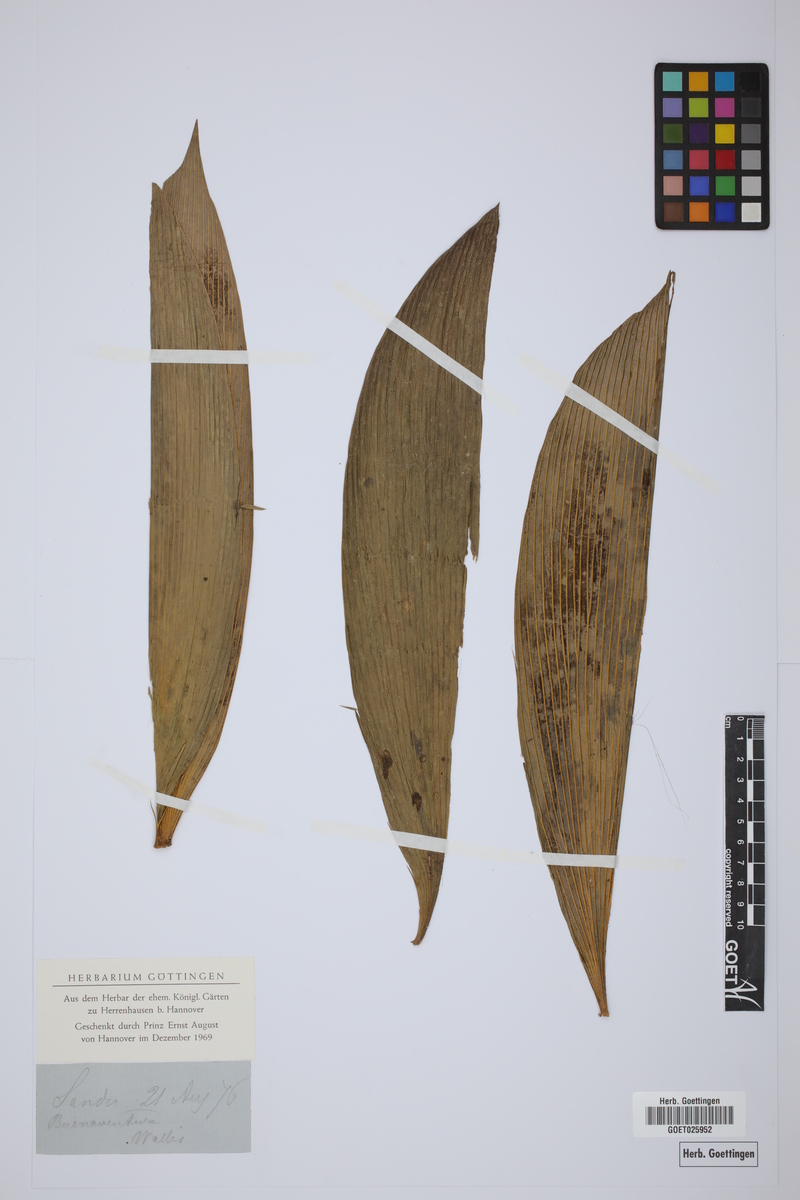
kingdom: Plantae
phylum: Tracheophyta
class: Cycadopsida
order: Cycadales
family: Cycadaceae
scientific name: Cycadaceae
